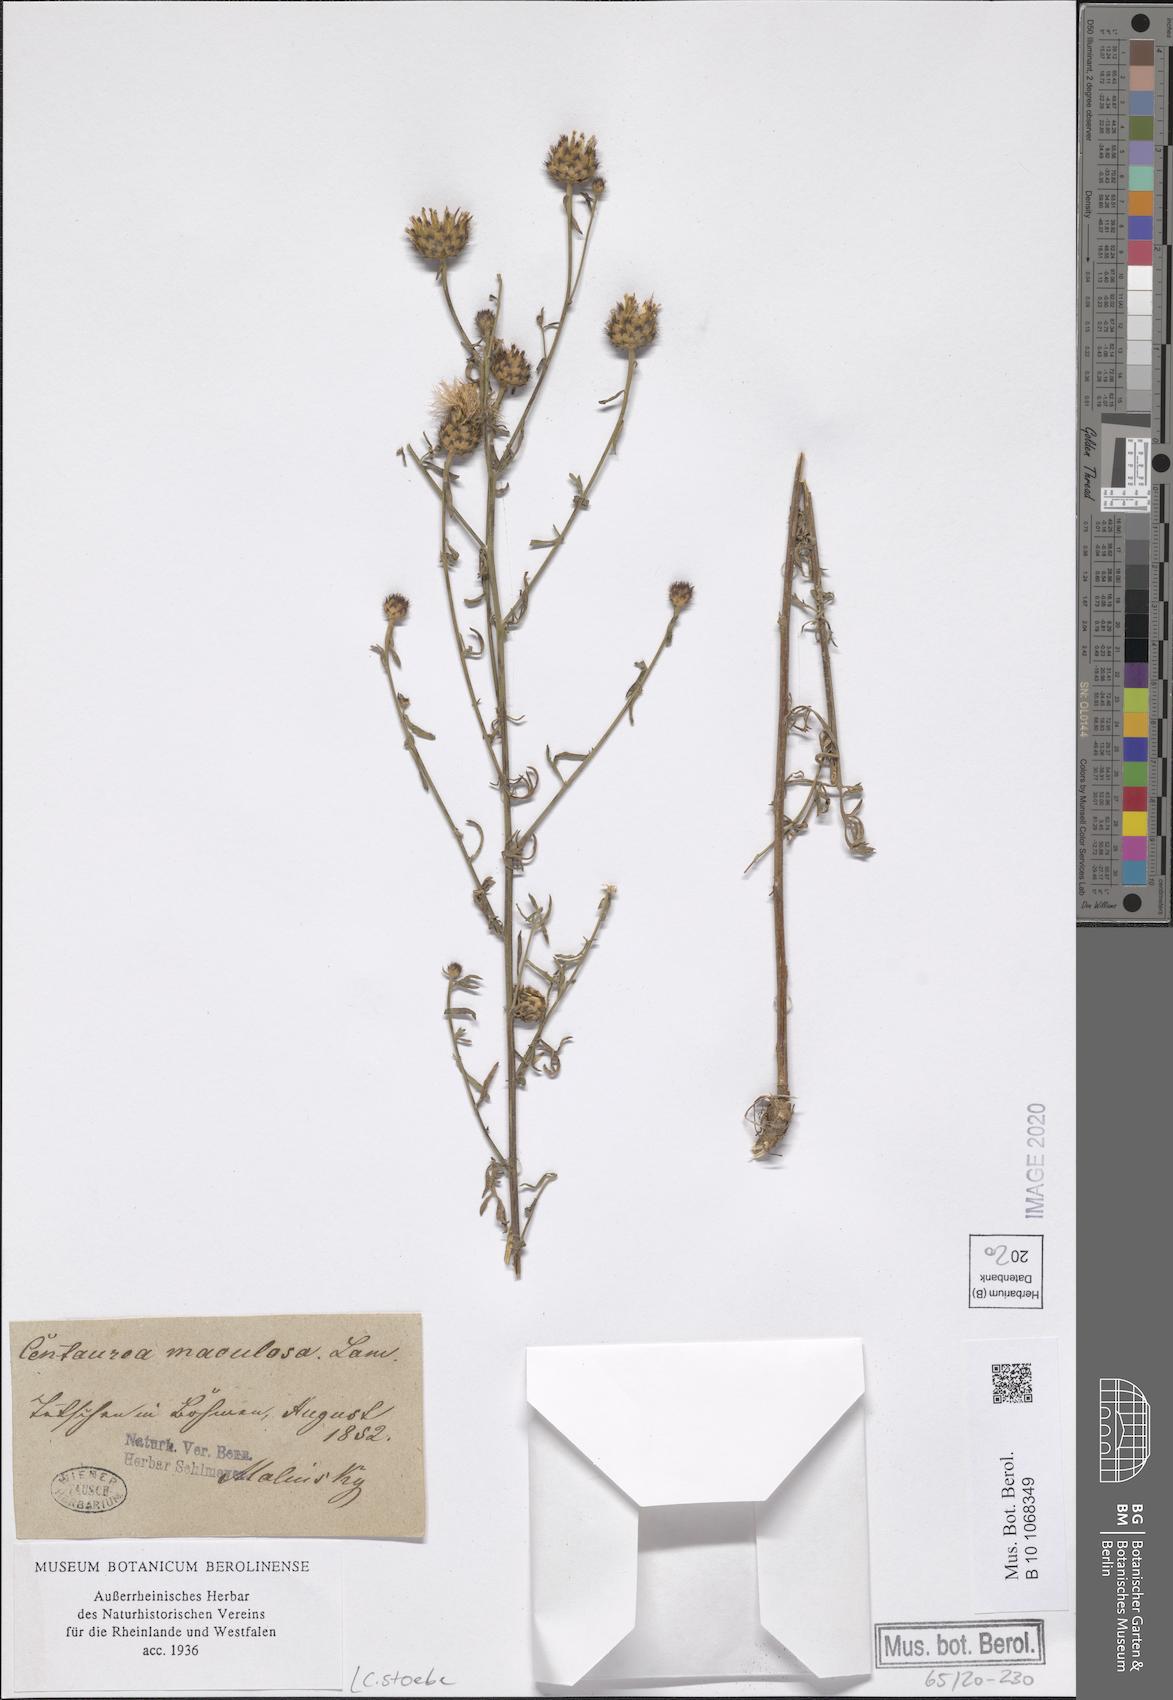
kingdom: Plantae
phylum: Tracheophyta
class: Magnoliopsida
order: Asterales
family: Asteraceae
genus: Centaurea
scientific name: Centaurea stoebe
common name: Spotted knapweed
